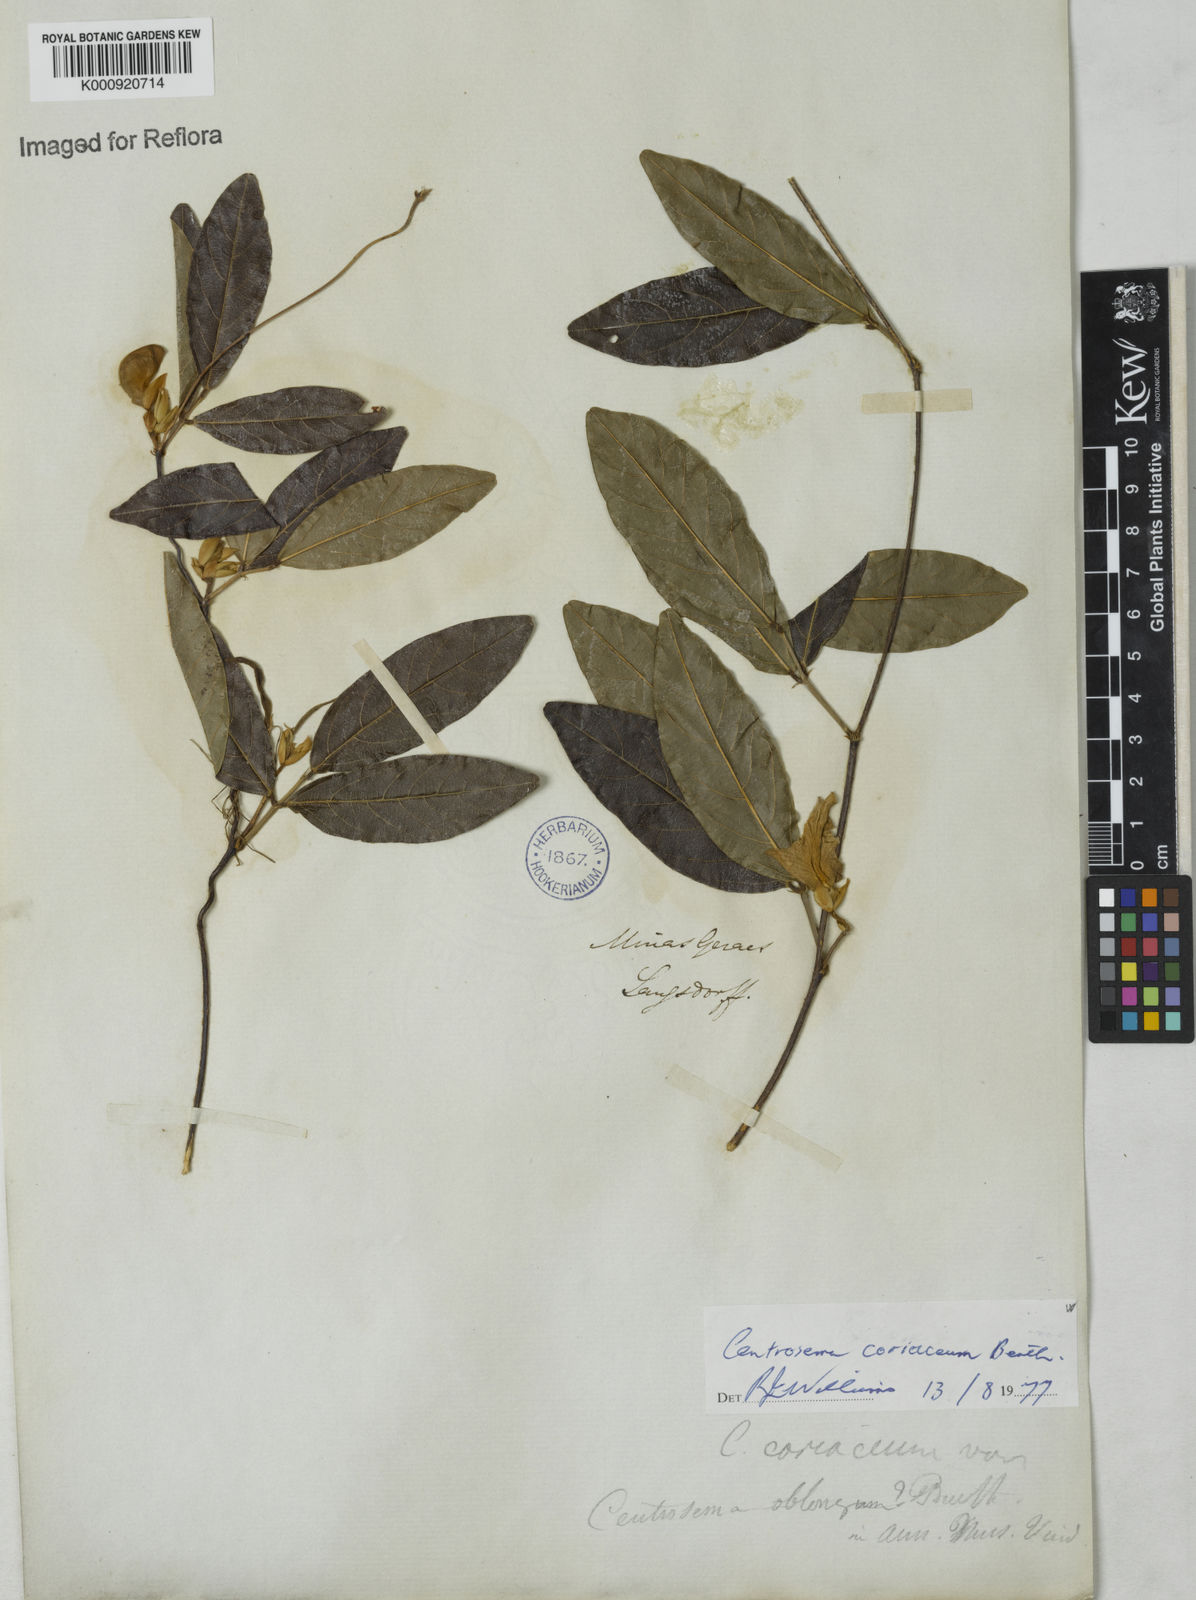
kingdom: Plantae
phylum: Tracheophyta
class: Magnoliopsida
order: Fabales
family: Fabaceae
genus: Centrosema
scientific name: Centrosema coriaceum
